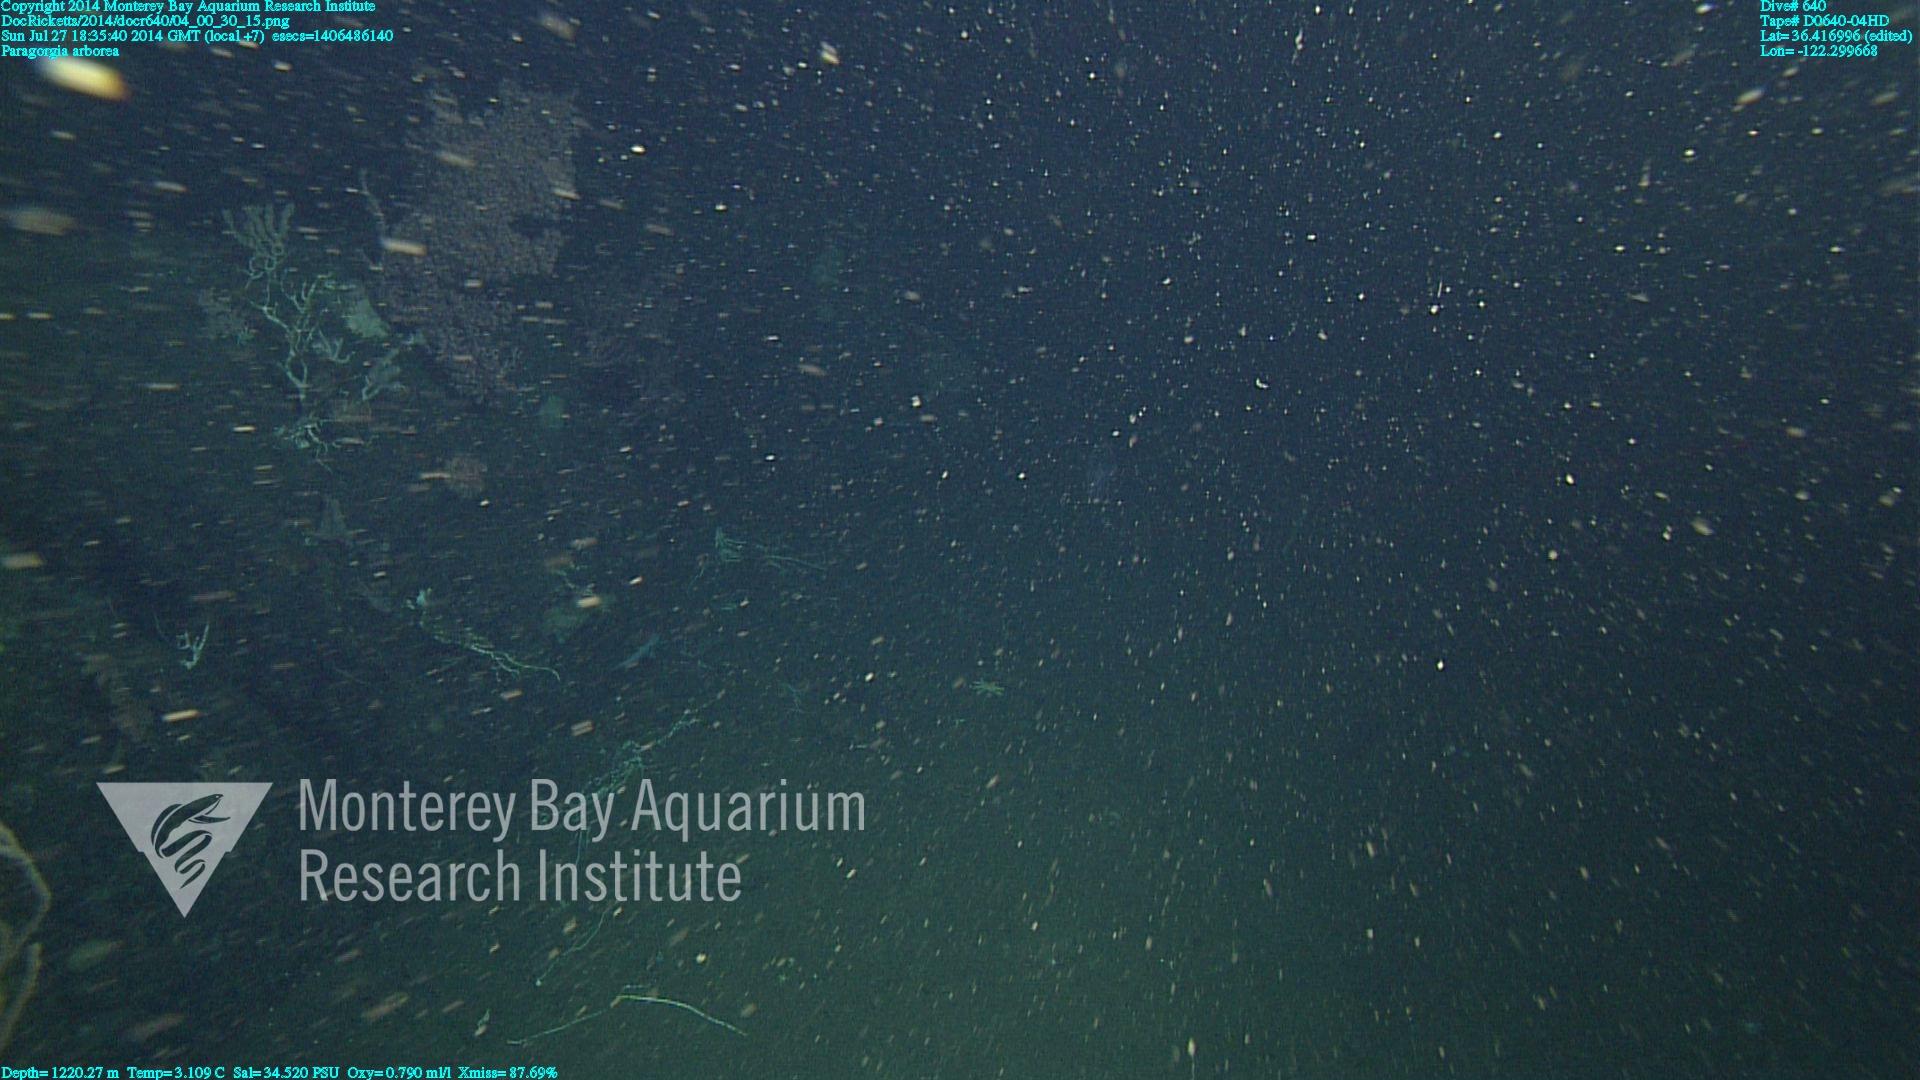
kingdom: Animalia
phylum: Cnidaria
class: Anthozoa
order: Scleralcyonacea
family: Coralliidae
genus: Paragorgia
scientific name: Paragorgia arborea
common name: Bubble gum coral
